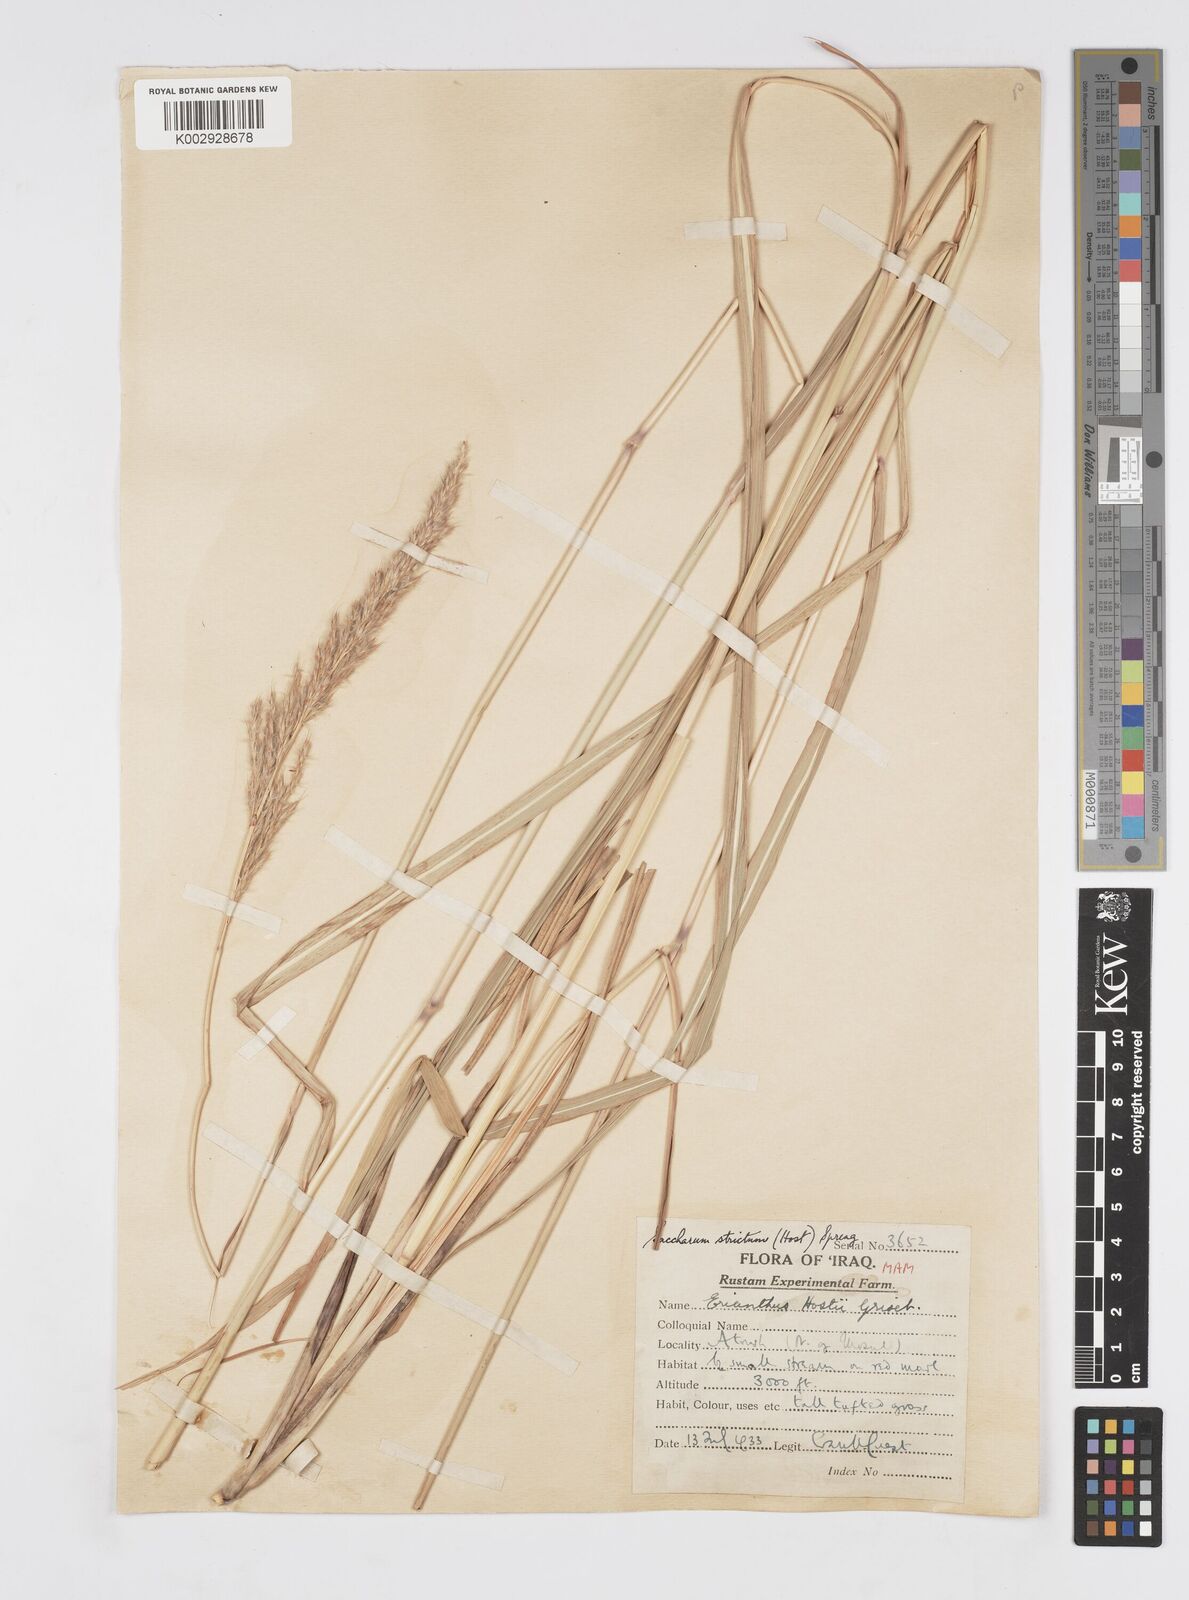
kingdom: Plantae
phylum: Tracheophyta
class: Liliopsida
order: Poales
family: Poaceae
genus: Tripidium
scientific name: Tripidium strictum
